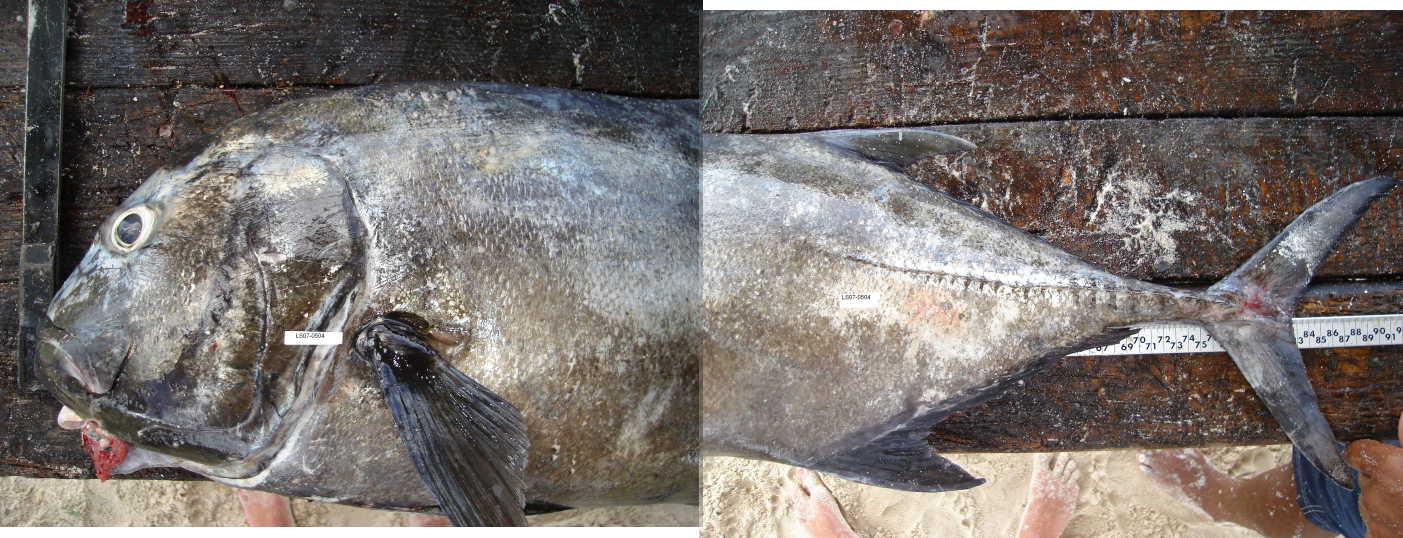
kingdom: Animalia
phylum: Chordata
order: Perciformes
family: Carangidae
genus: Caranx
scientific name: Caranx ignobilis
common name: Giant trevally
